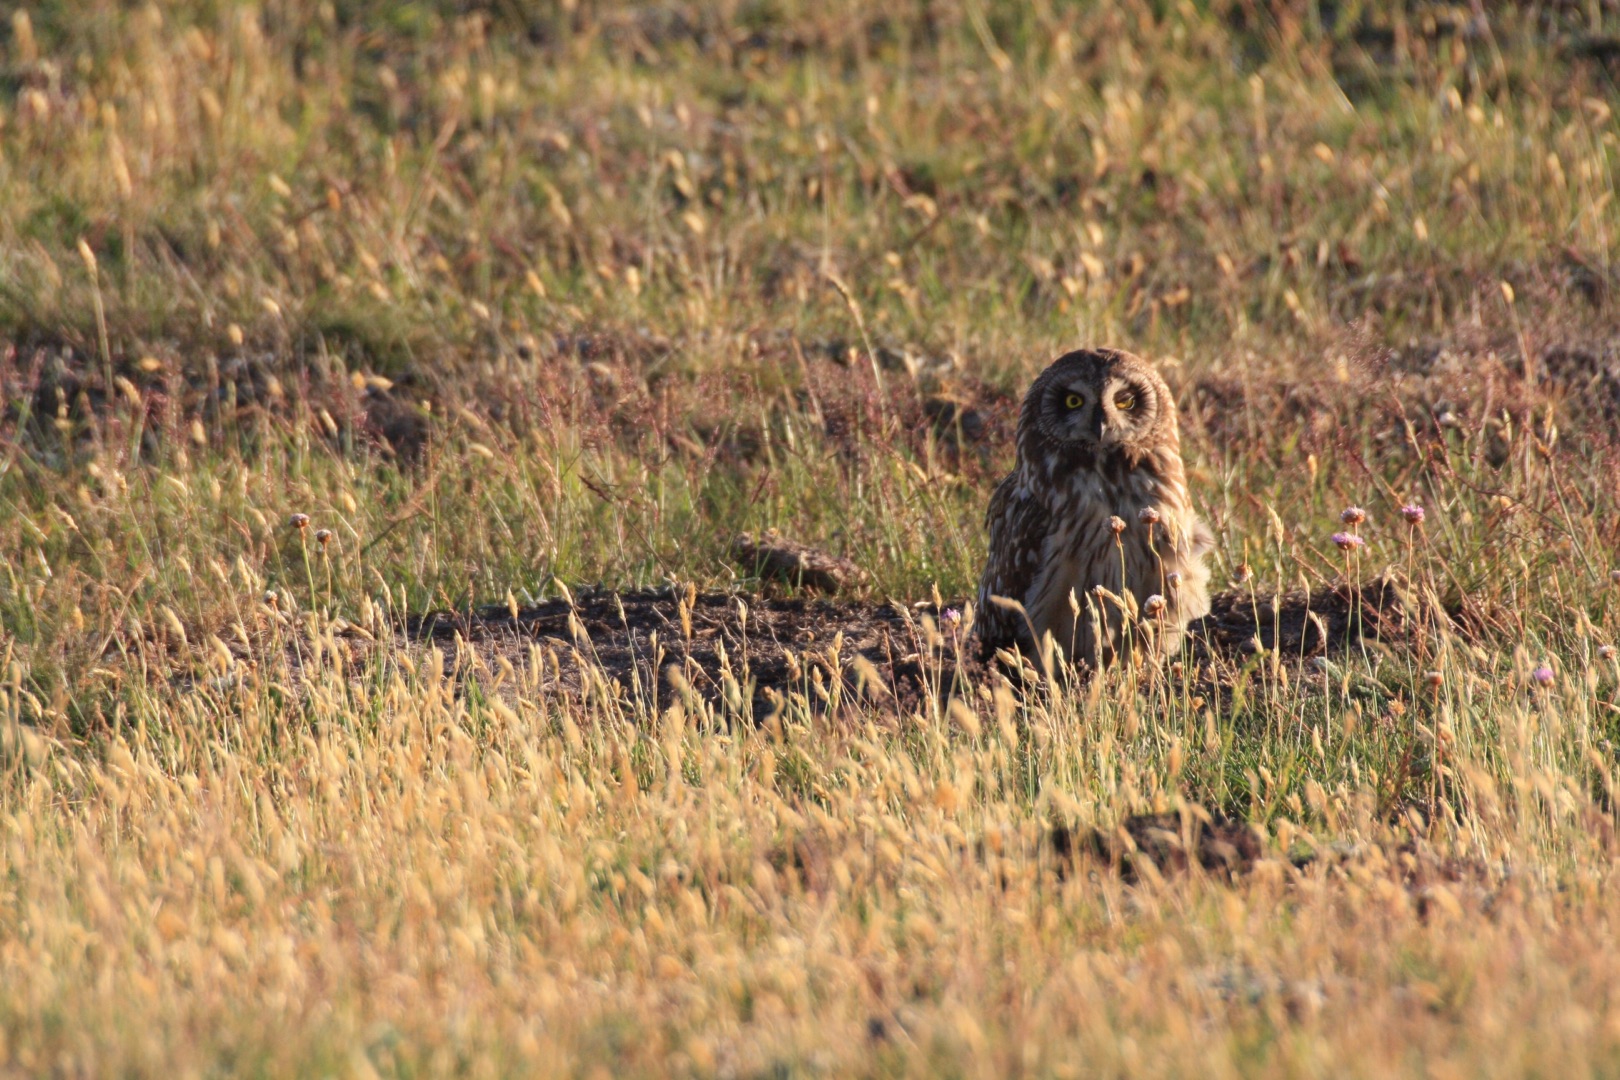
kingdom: Animalia
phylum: Chordata
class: Aves
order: Strigiformes
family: Strigidae
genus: Asio
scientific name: Asio flammeus
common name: Mosehornugle
